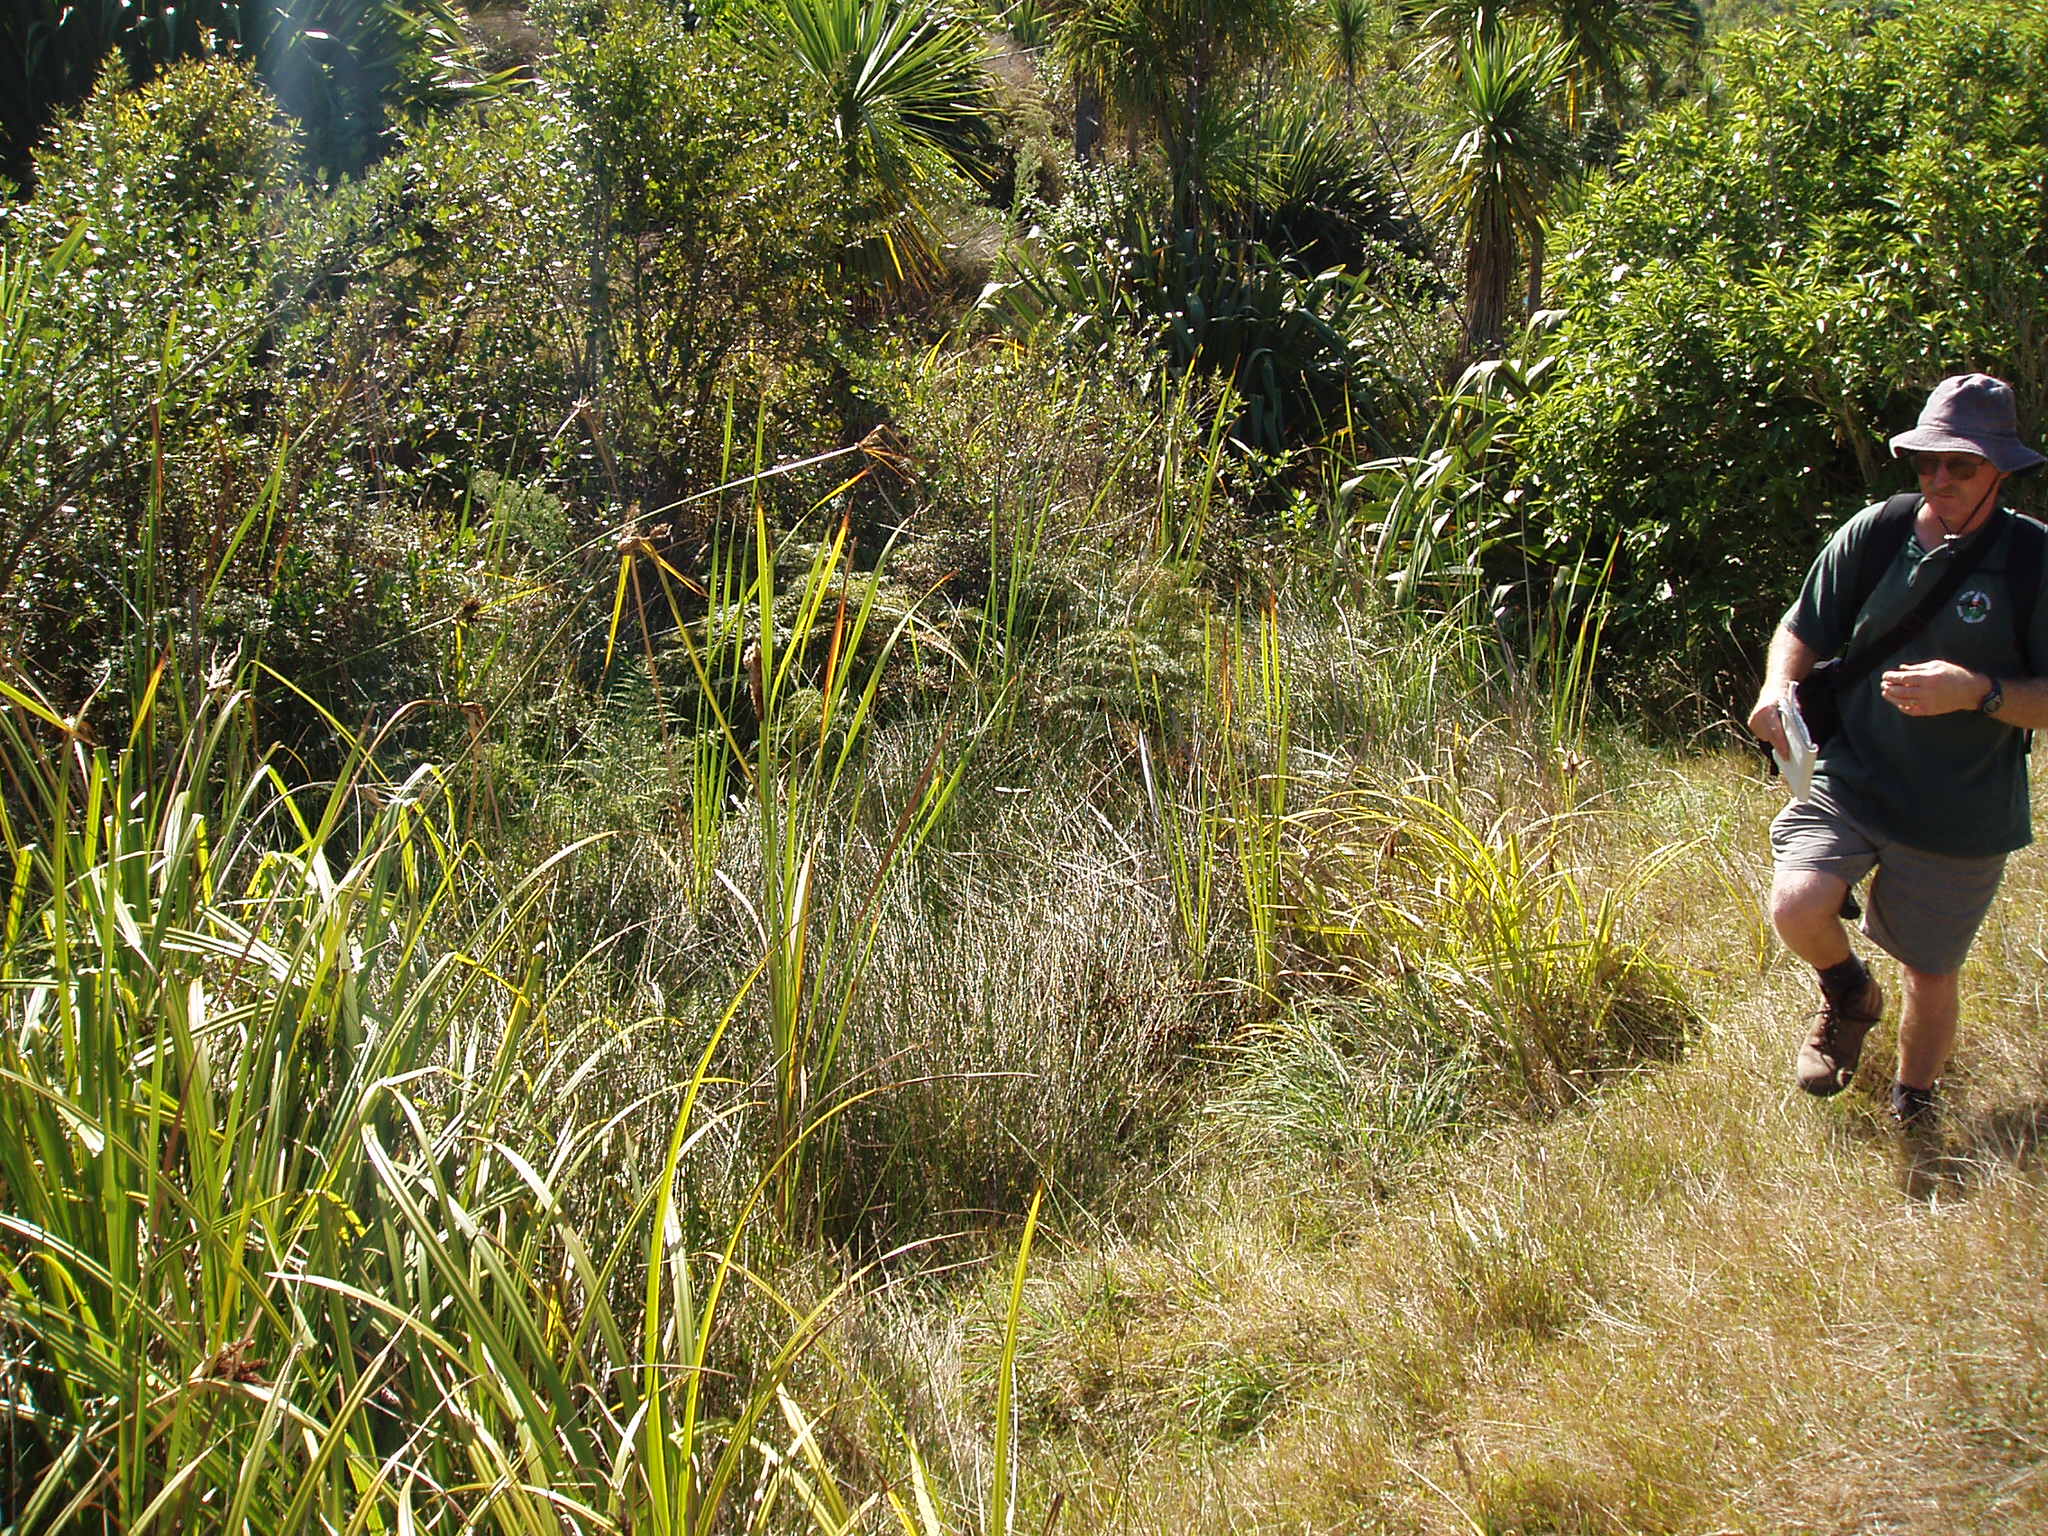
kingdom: Plantae
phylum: Tracheophyta
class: Liliopsida
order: Poales
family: Cyperaceae
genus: Machaerina
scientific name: Machaerina rubiginosa
